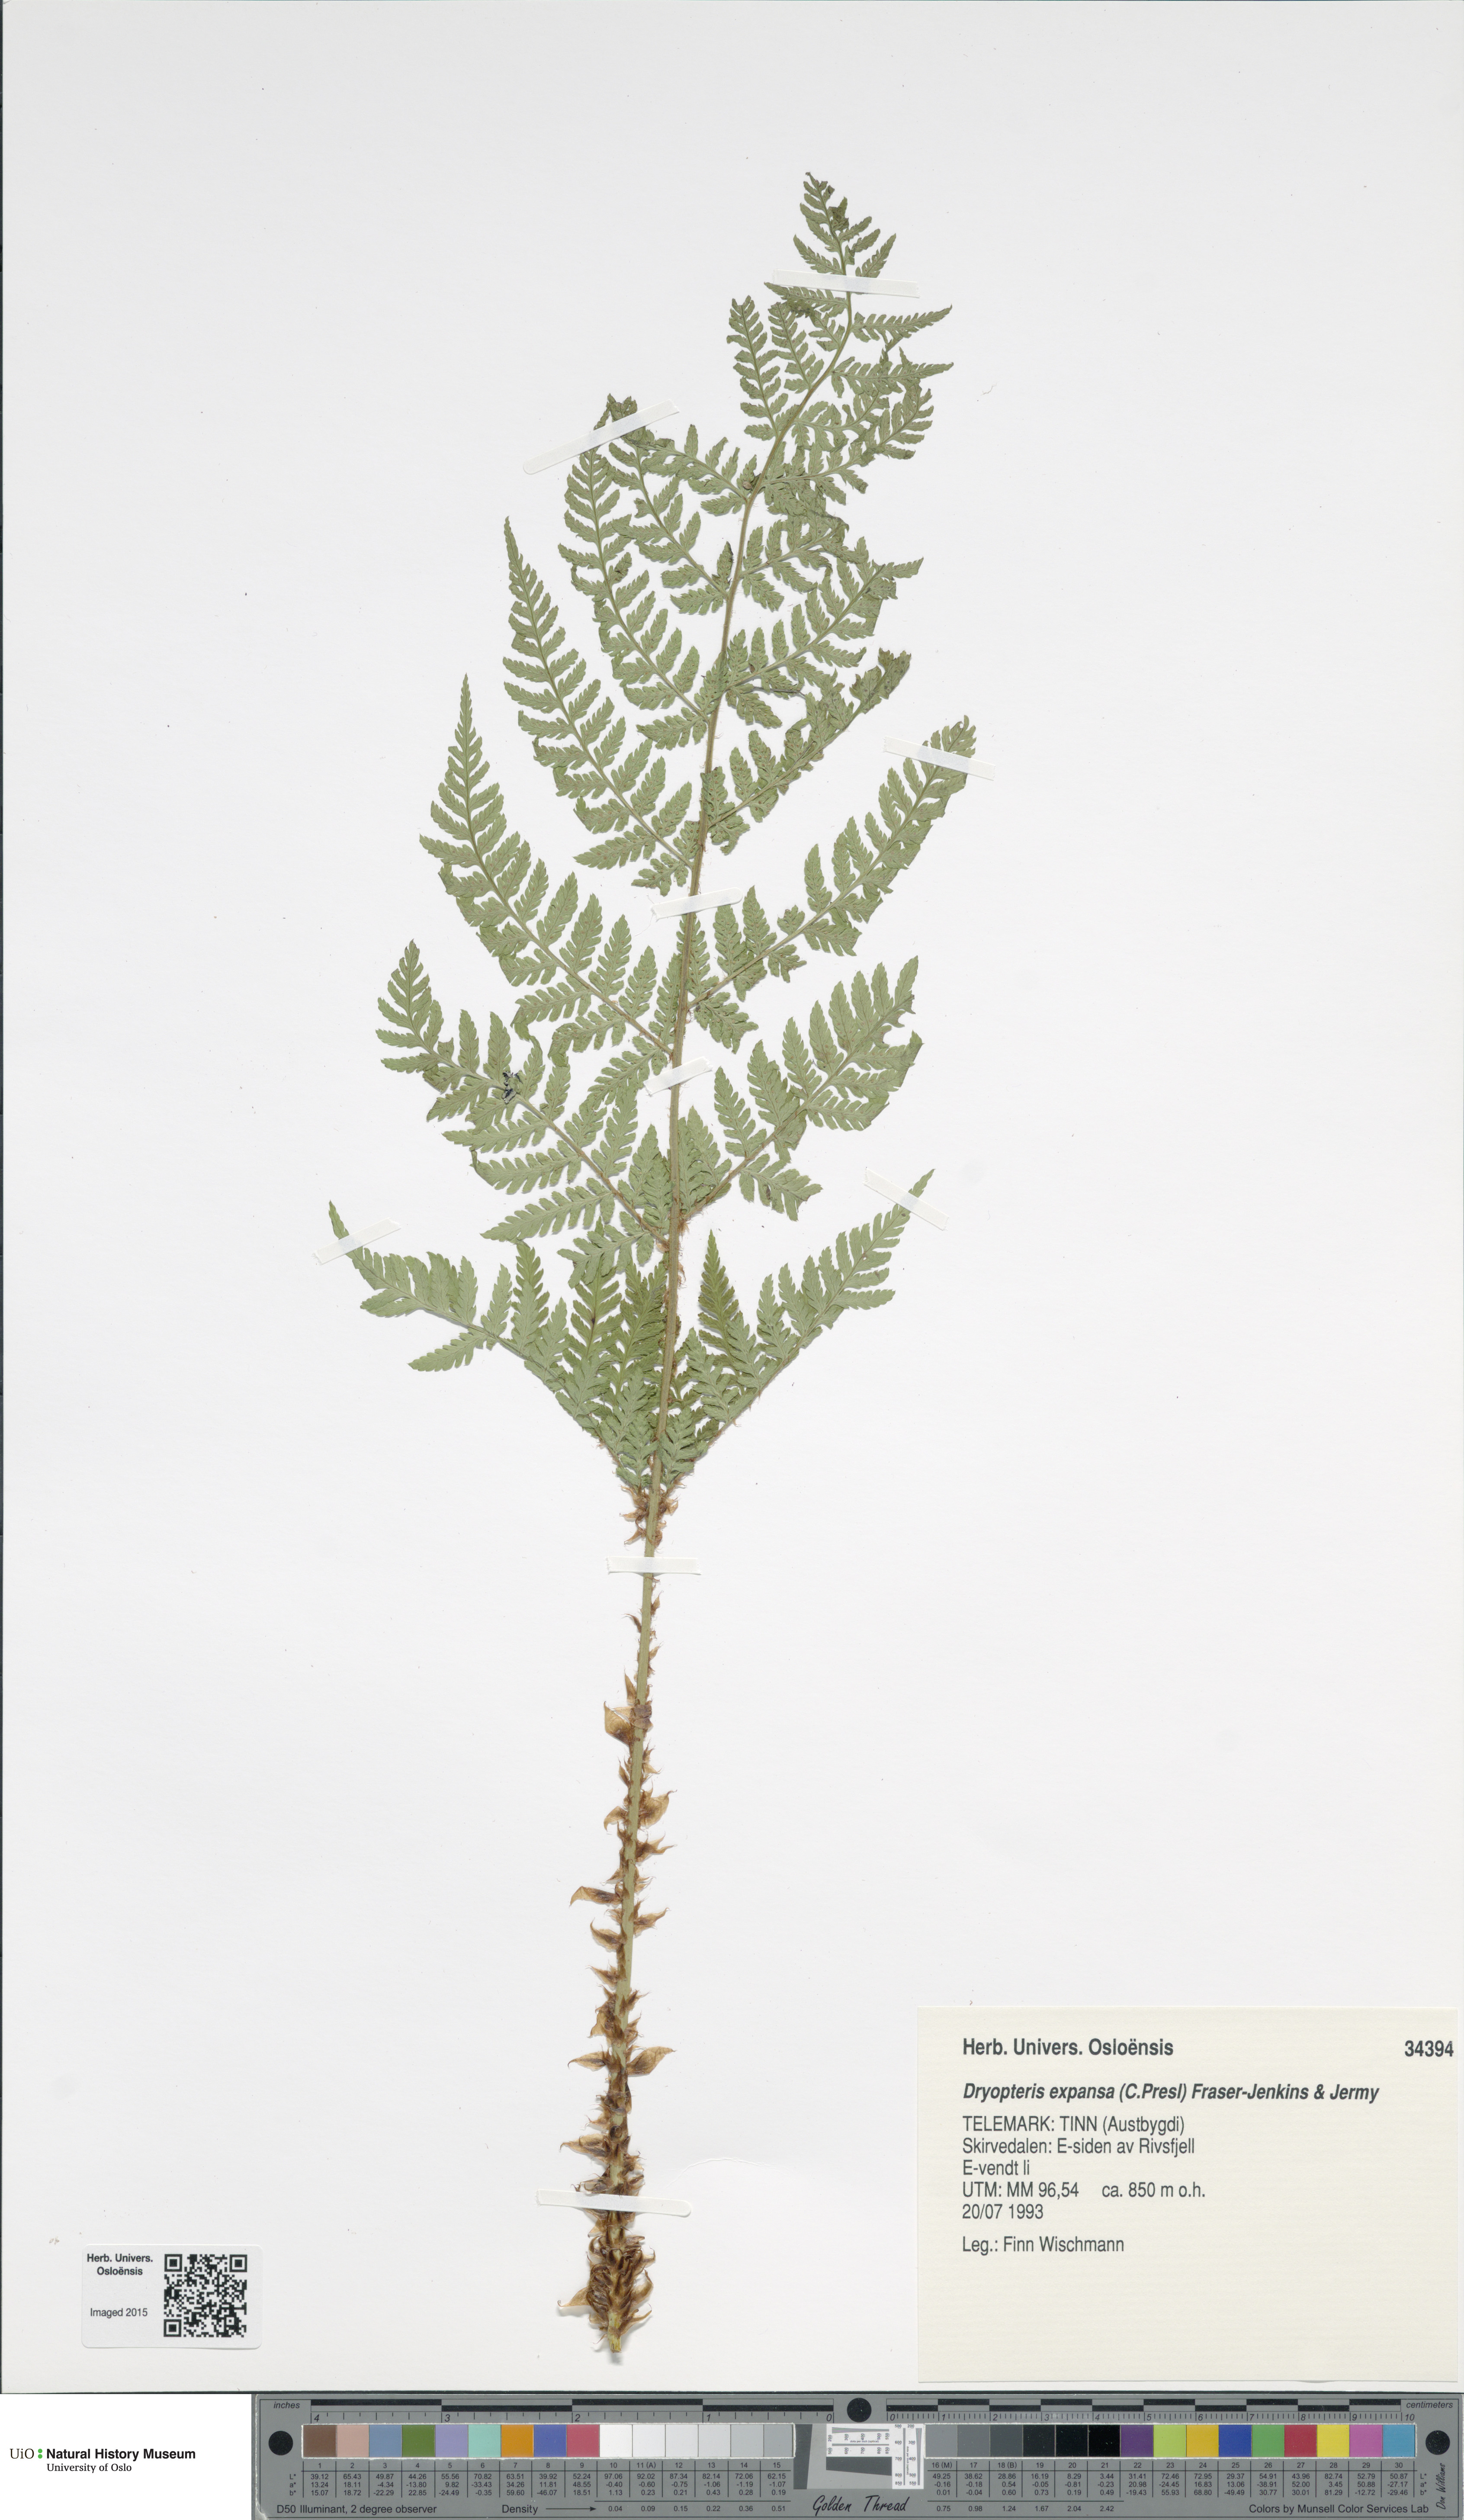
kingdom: Plantae
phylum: Tracheophyta
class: Polypodiopsida
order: Polypodiales
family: Dryopteridaceae
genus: Dryopteris
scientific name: Dryopteris expansa
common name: Northern buckler fern
